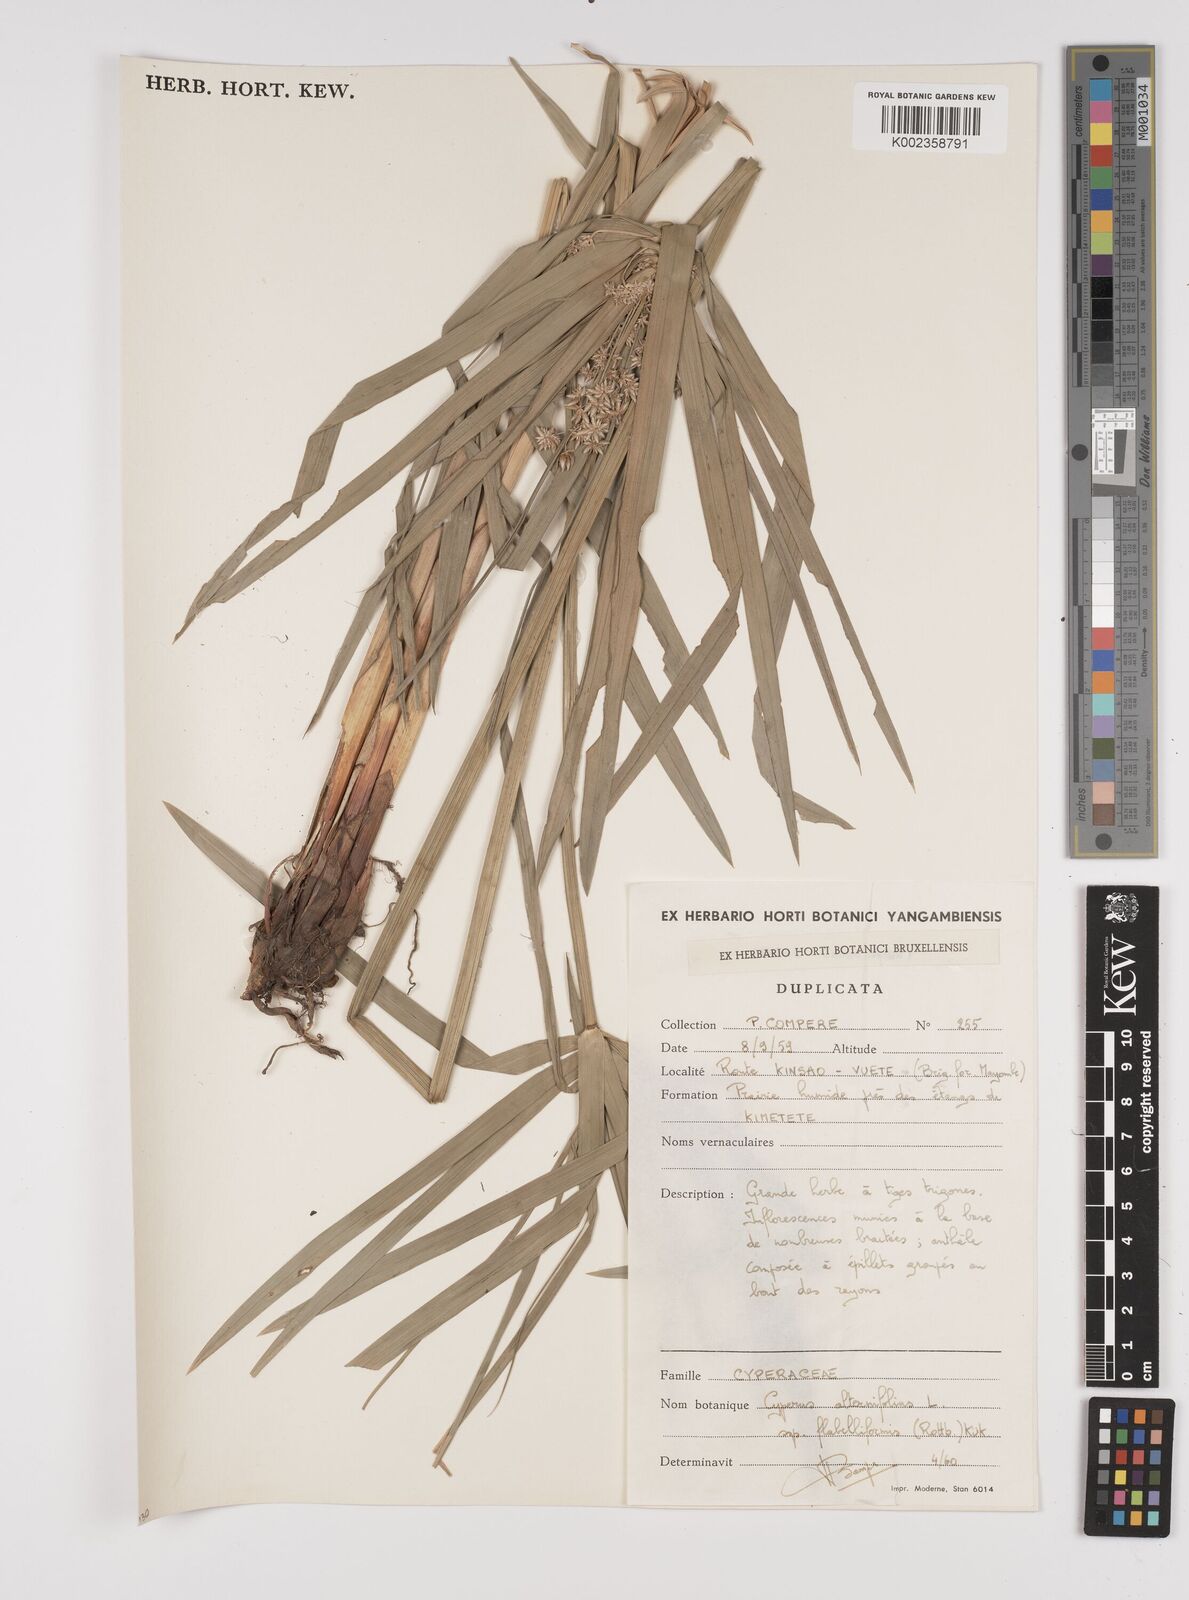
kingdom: Plantae
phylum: Tracheophyta
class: Liliopsida
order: Poales
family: Cyperaceae
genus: Cyperus
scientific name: Cyperus alternifolius
